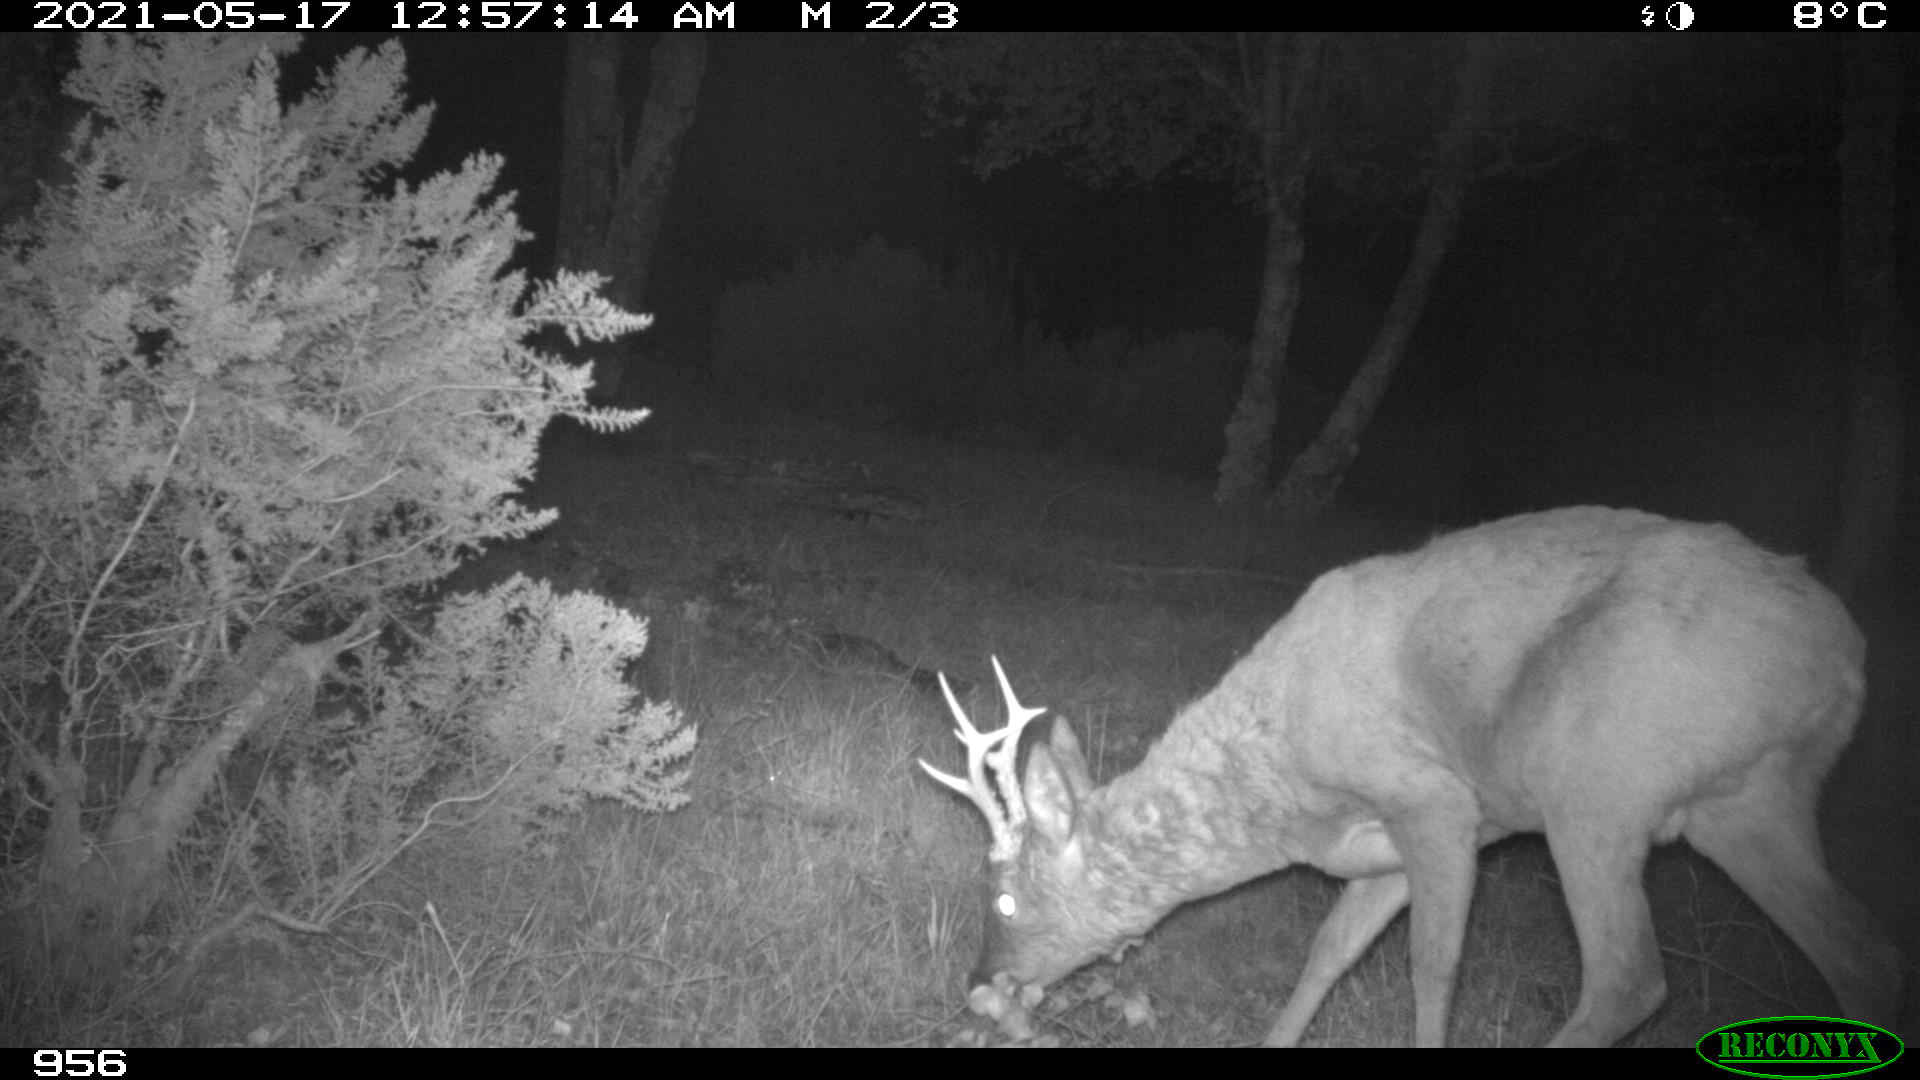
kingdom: Animalia
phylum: Chordata
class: Mammalia
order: Artiodactyla
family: Cervidae
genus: Capreolus
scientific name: Capreolus capreolus
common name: Western roe deer
